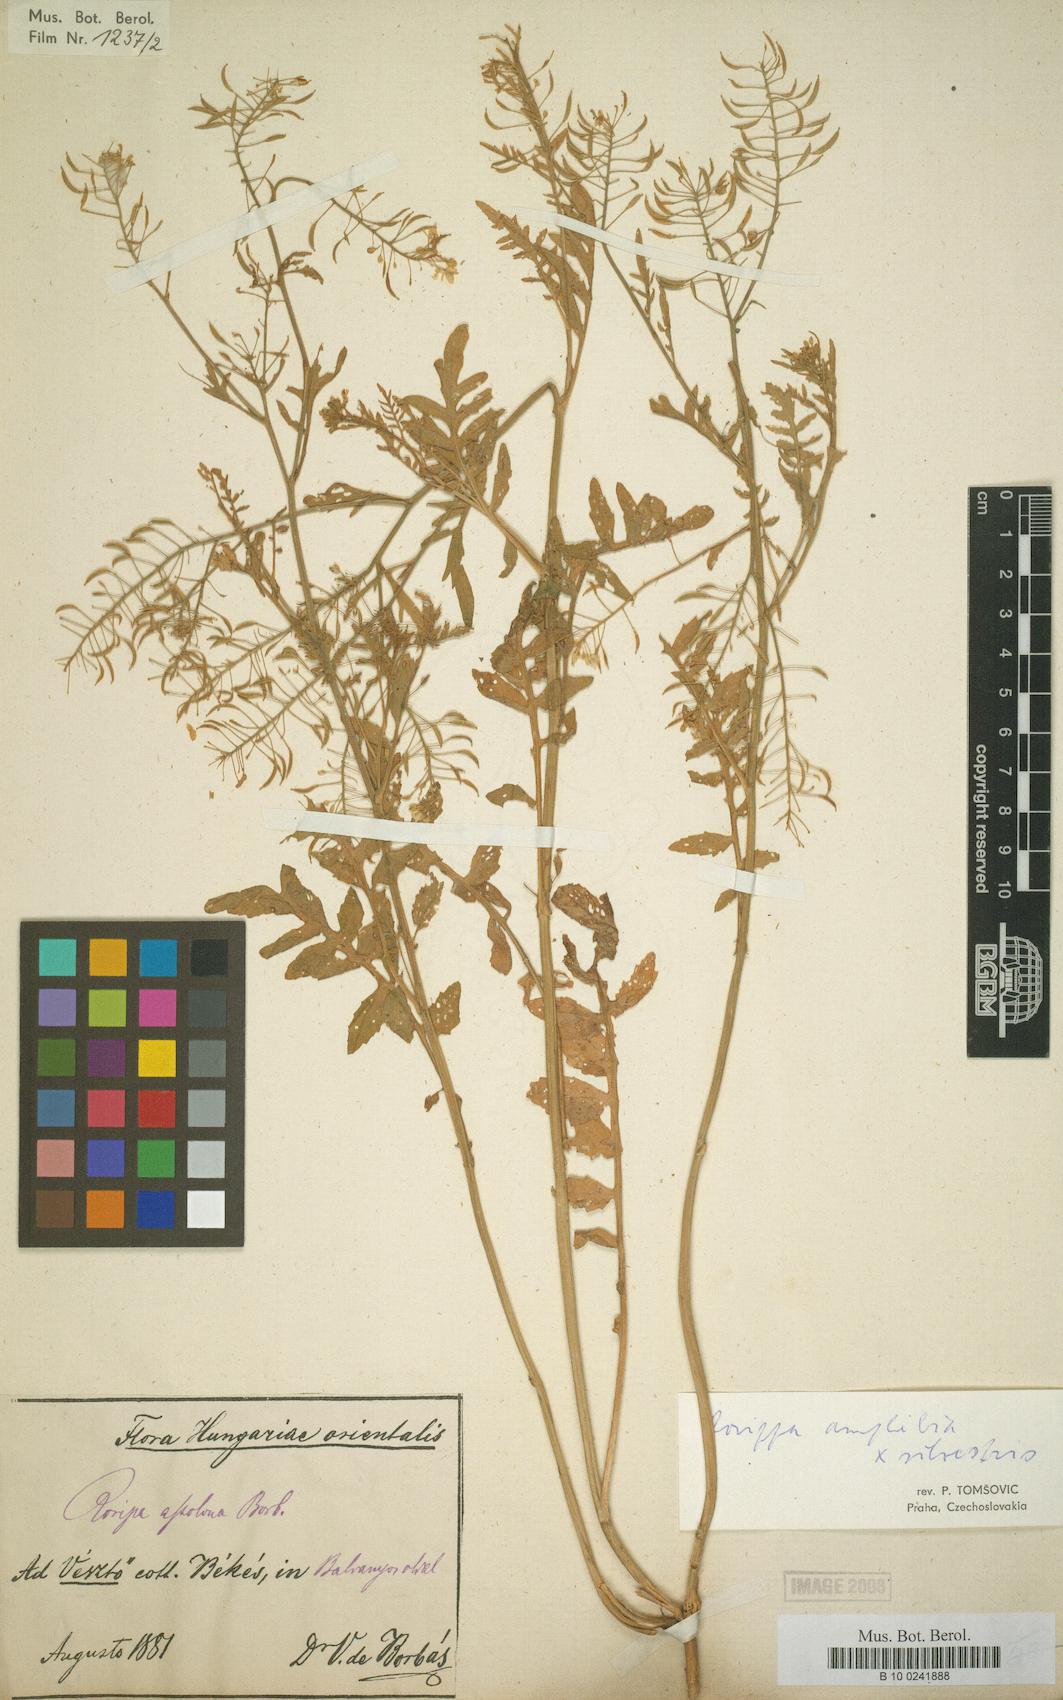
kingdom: Plantae
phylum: Tracheophyta
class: Magnoliopsida
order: Brassicales
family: Brassicaceae
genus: Nasturtium
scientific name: Nasturtium
